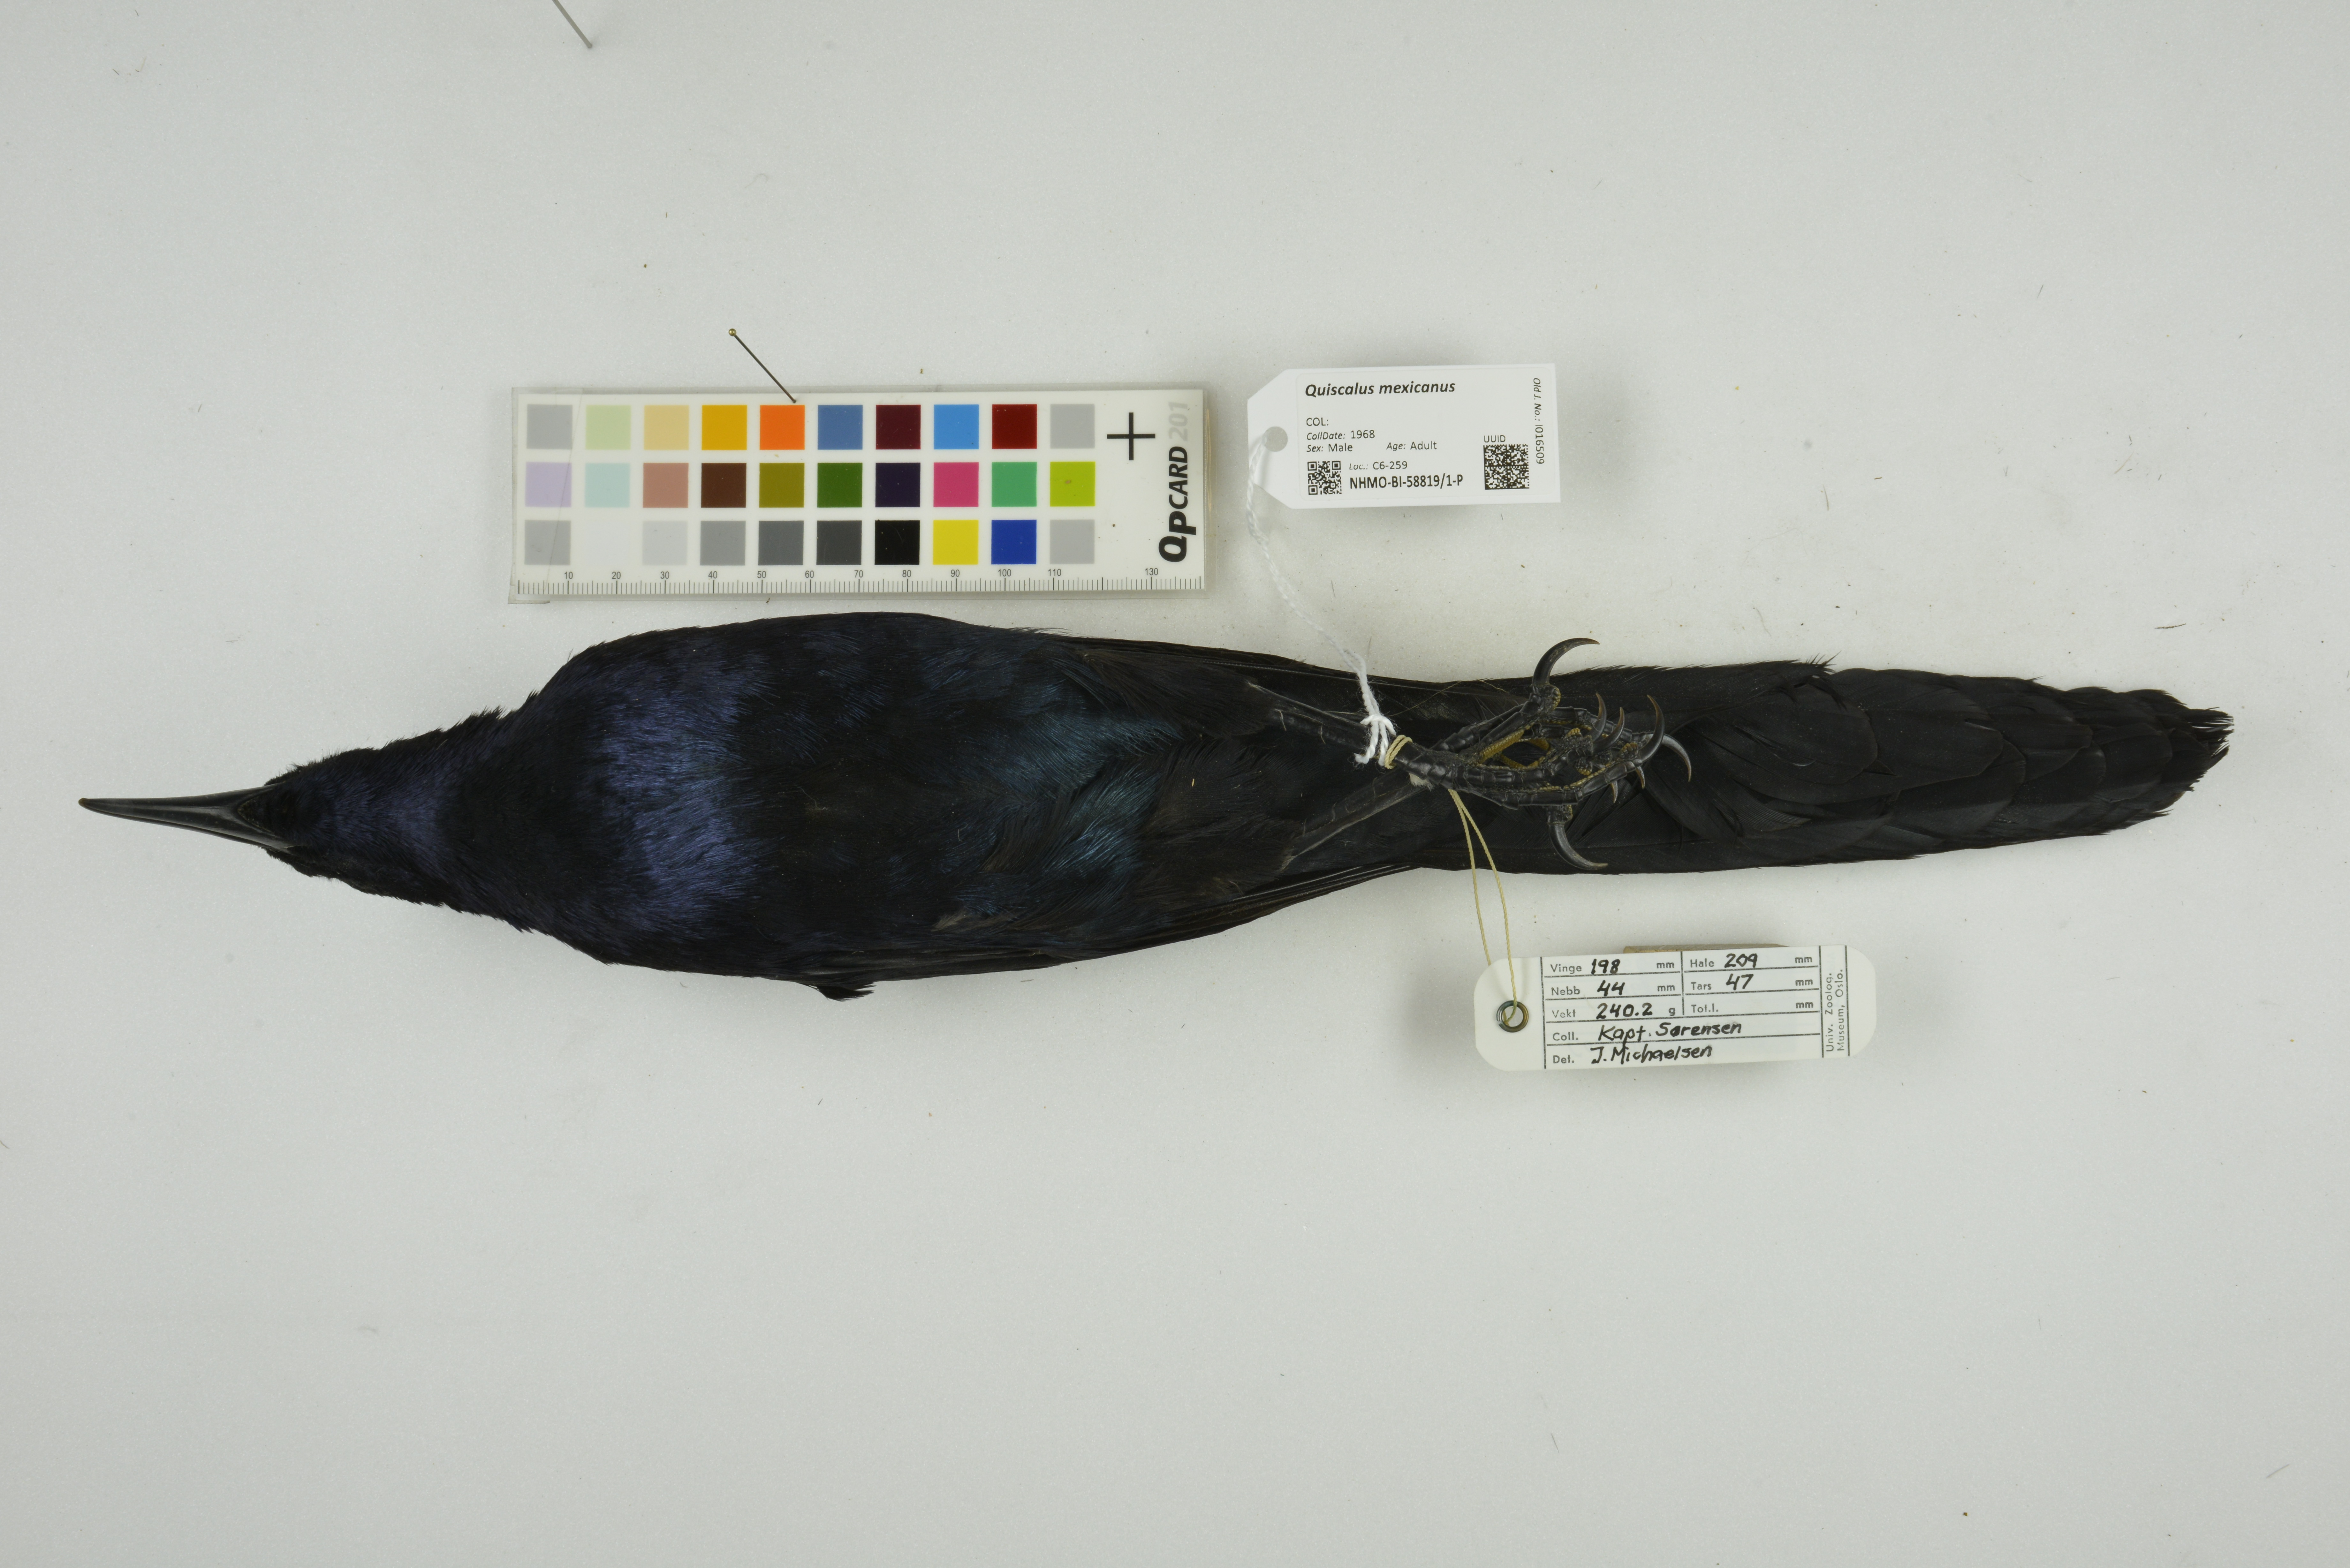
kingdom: Animalia
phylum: Chordata
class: Aves
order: Passeriformes
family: Icteridae
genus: Quiscalus
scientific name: Quiscalus mexicanus
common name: Great-tailed grackle
